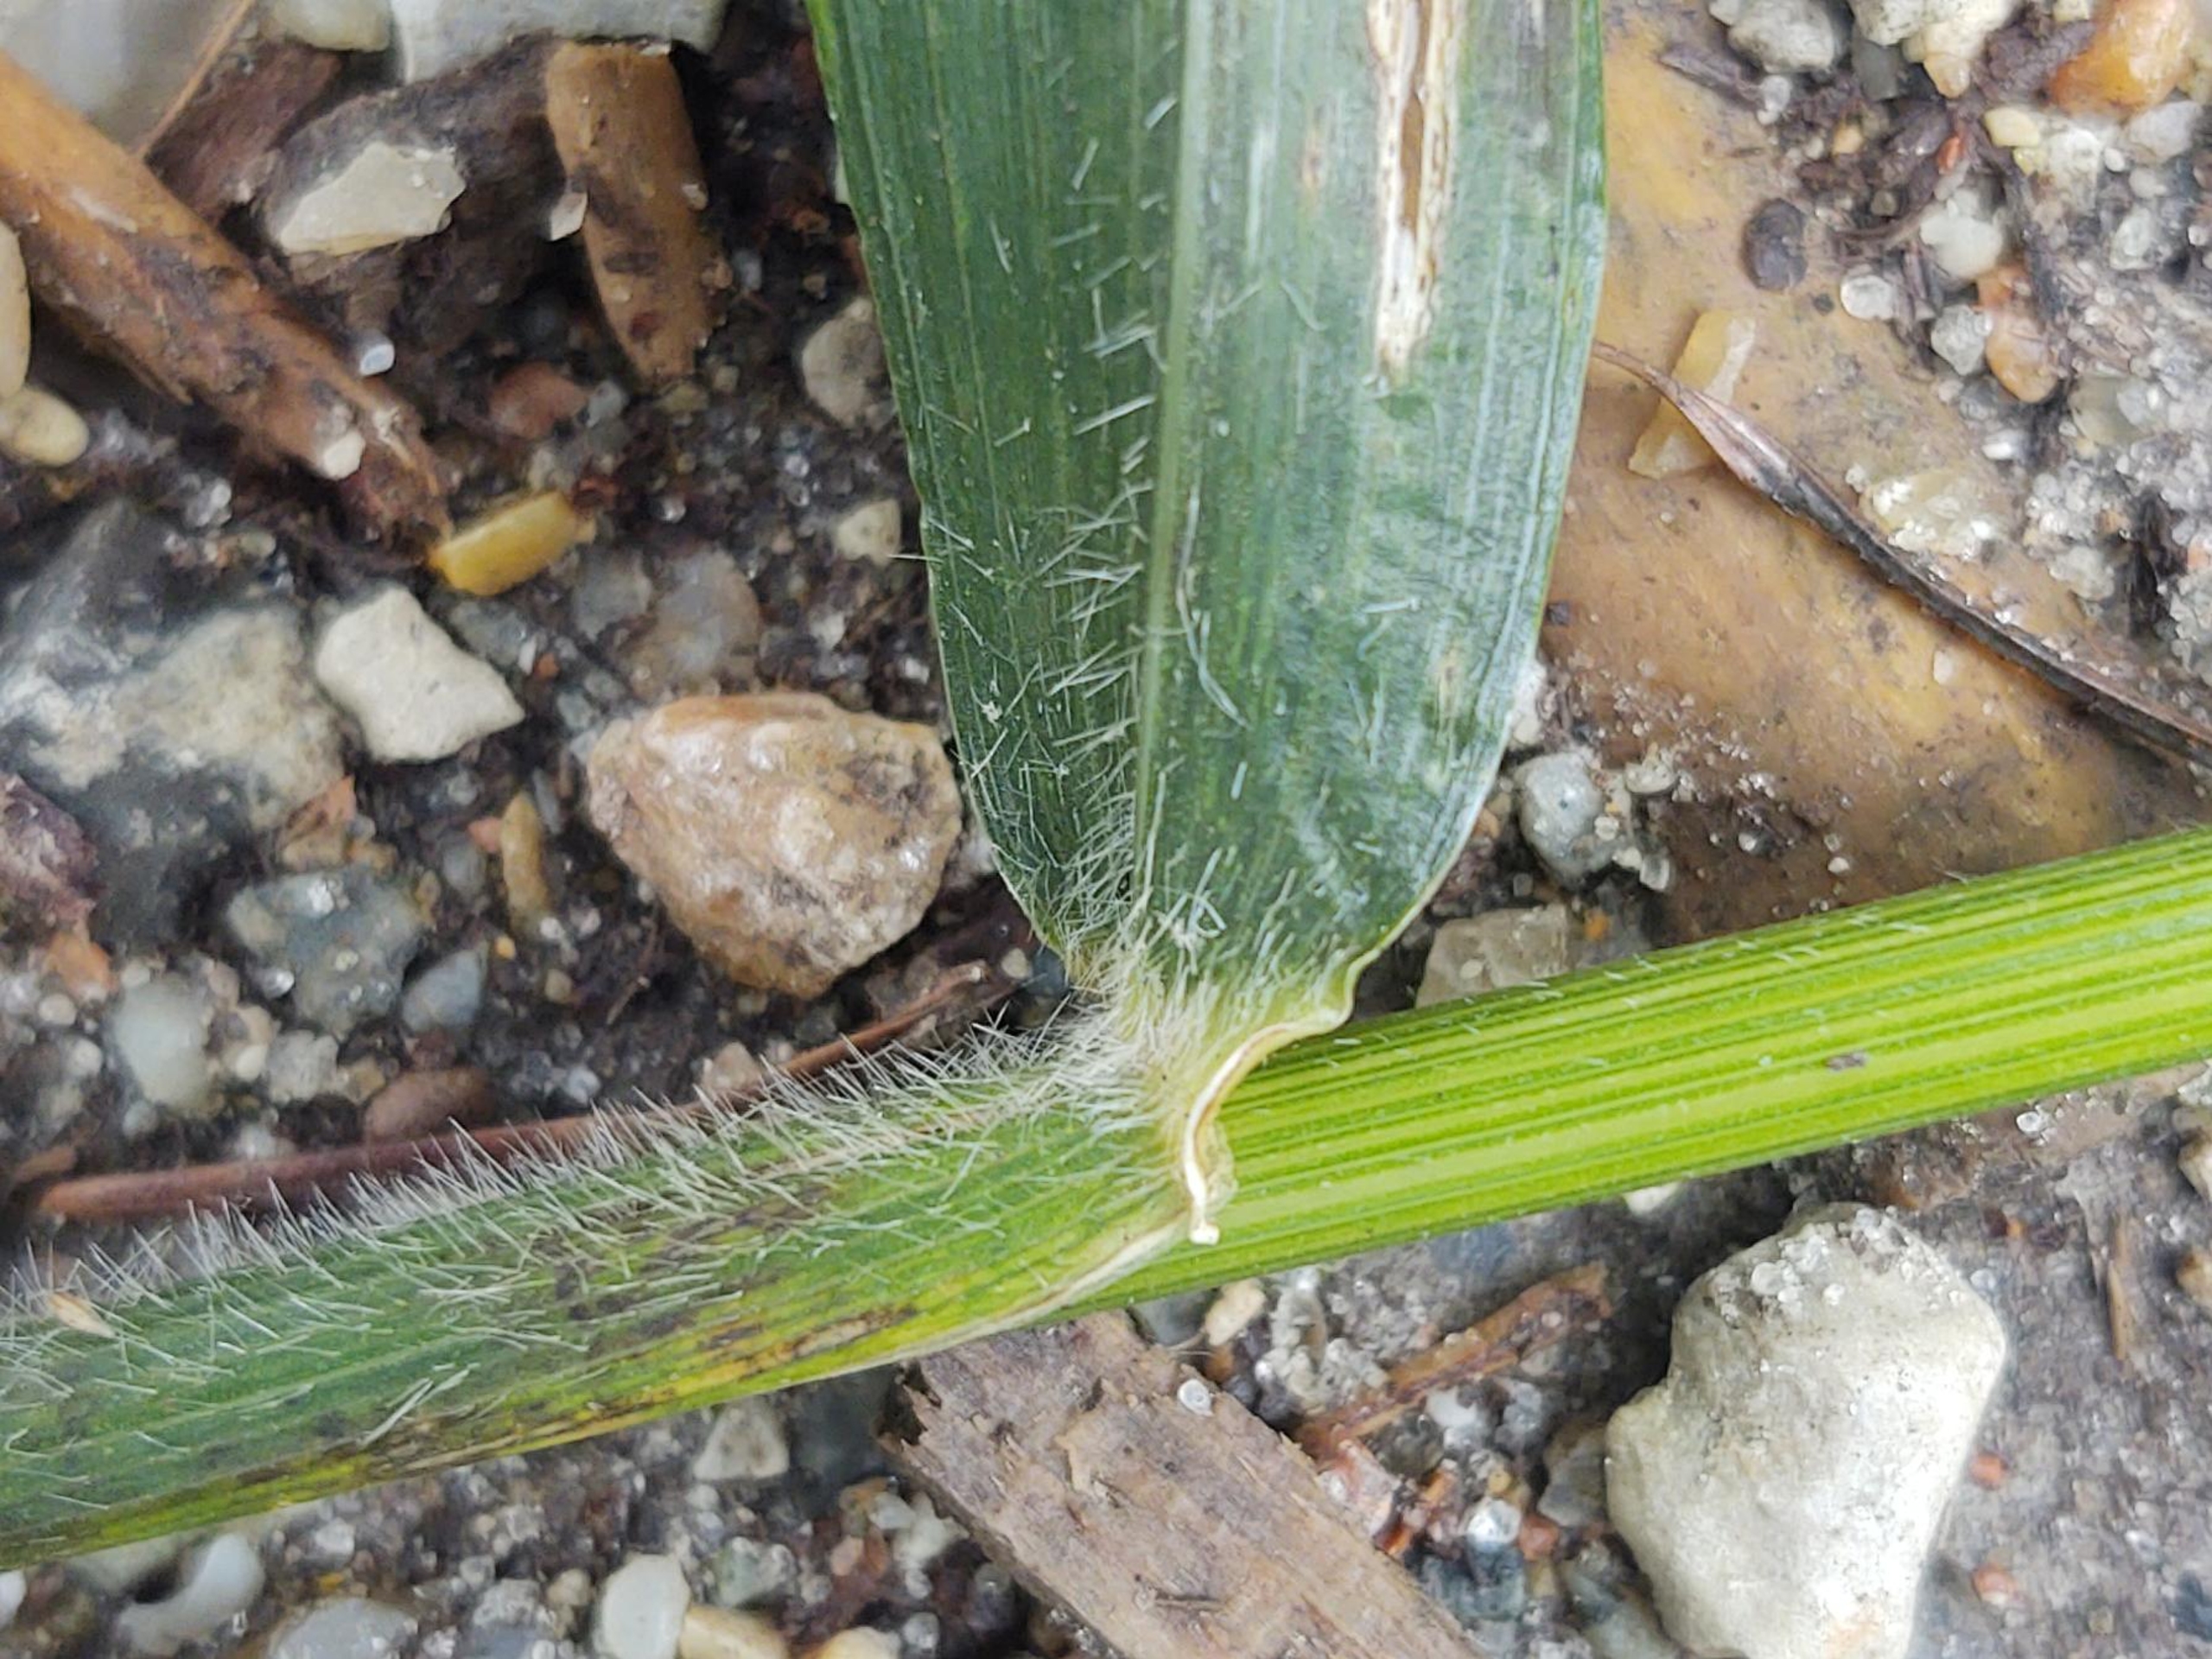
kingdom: Plantae
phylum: Tracheophyta
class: Liliopsida
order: Poales
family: Poaceae
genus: Hordelymus
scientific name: Hordelymus europaeus
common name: Skovbyg
